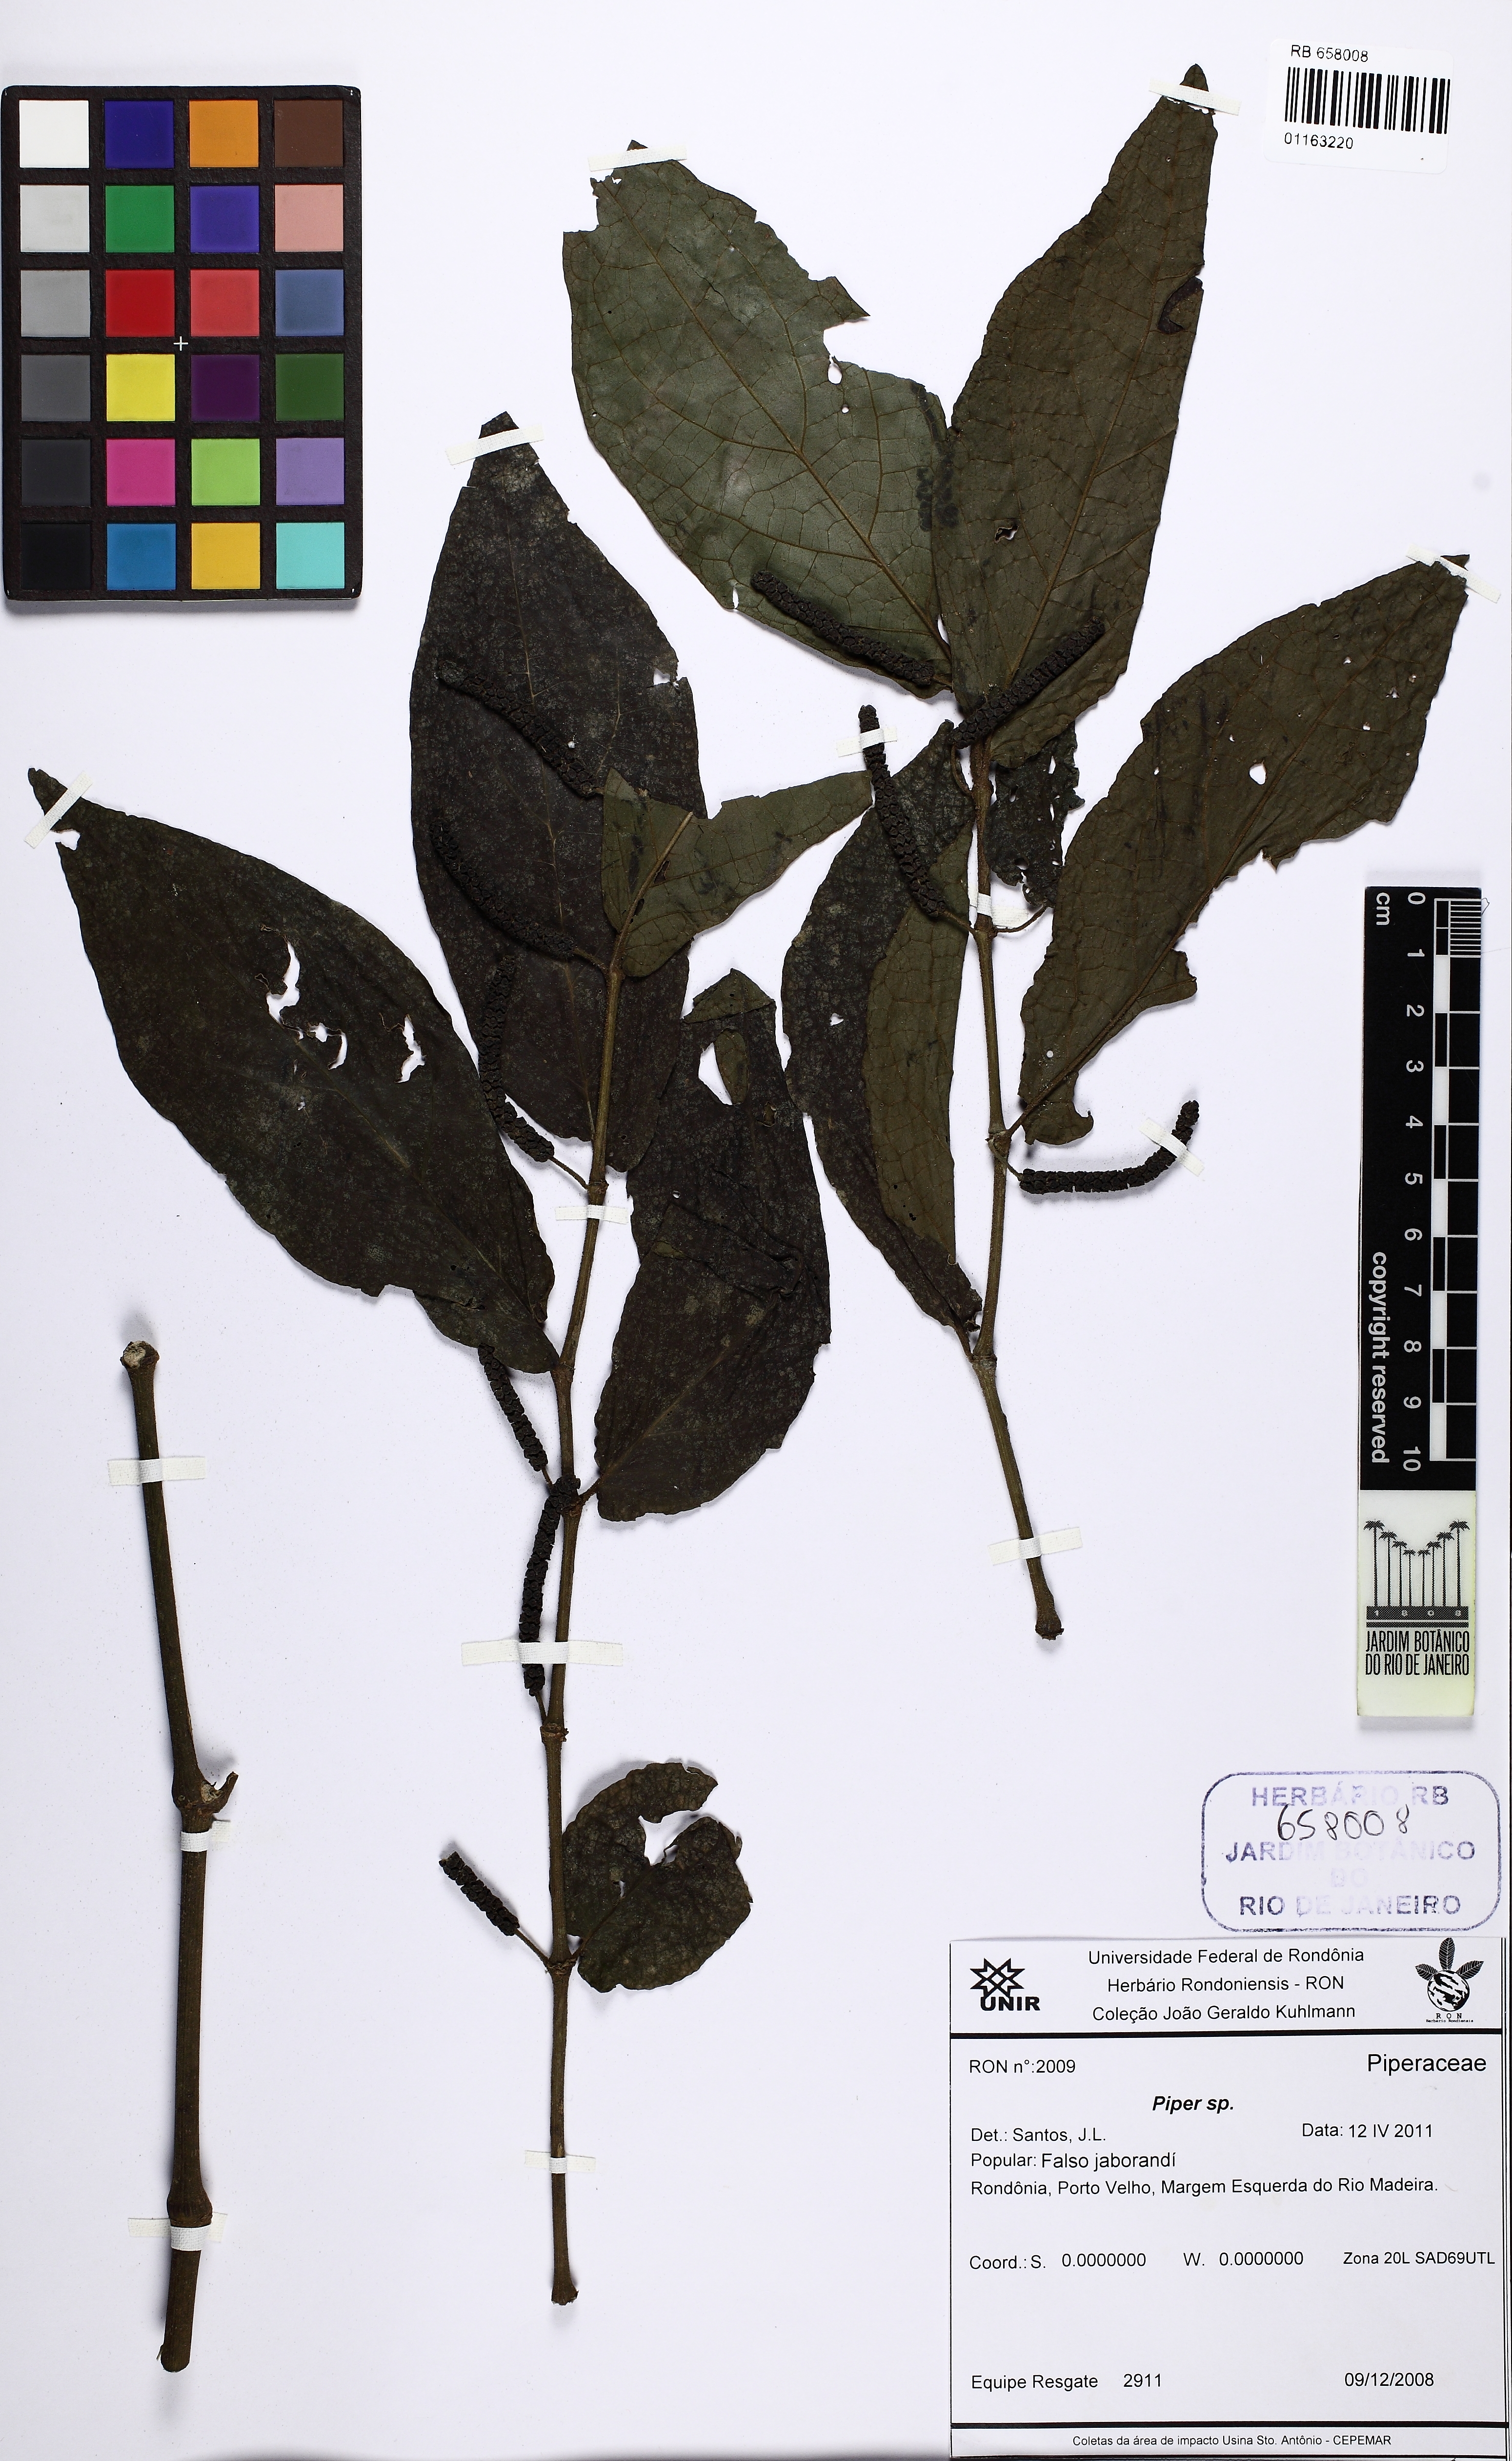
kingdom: Plantae
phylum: Tracheophyta
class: Magnoliopsida
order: Piperales
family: Piperaceae
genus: Piper
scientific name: Piper
